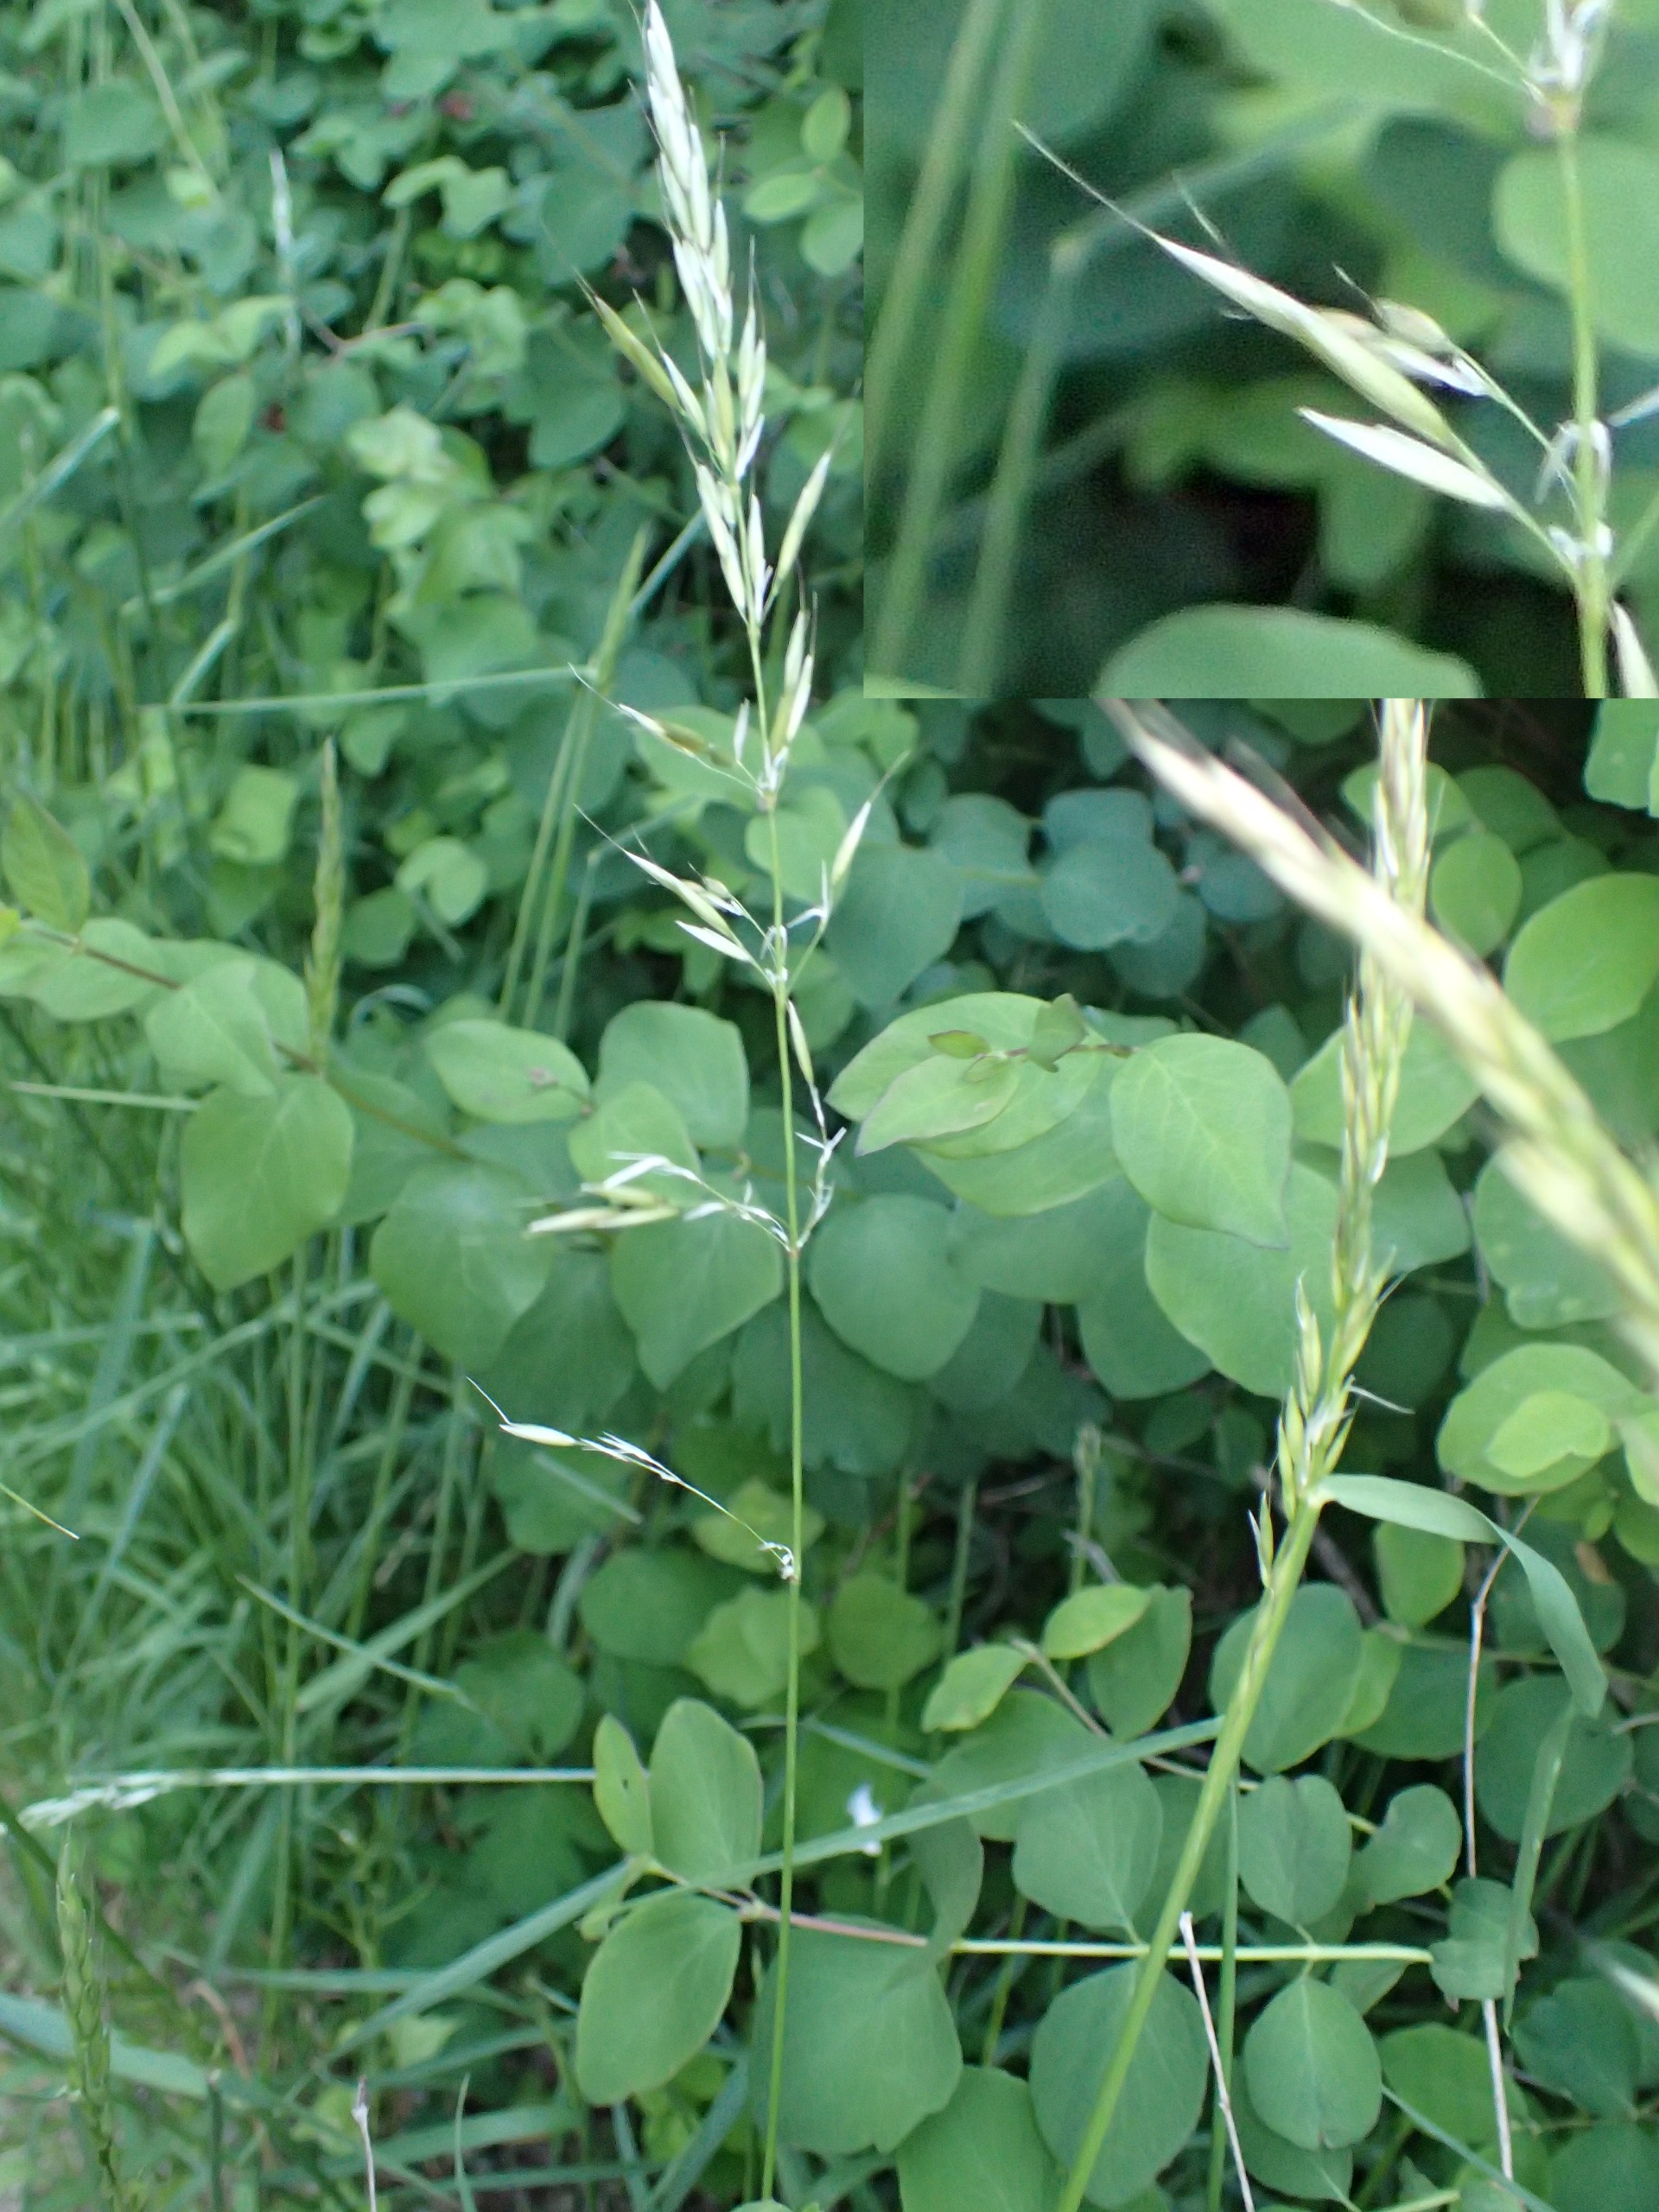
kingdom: Plantae
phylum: Tracheophyta
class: Liliopsida
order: Poales
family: Poaceae
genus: Arrhenatherum
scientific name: Arrhenatherum elatius
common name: Draphavre
